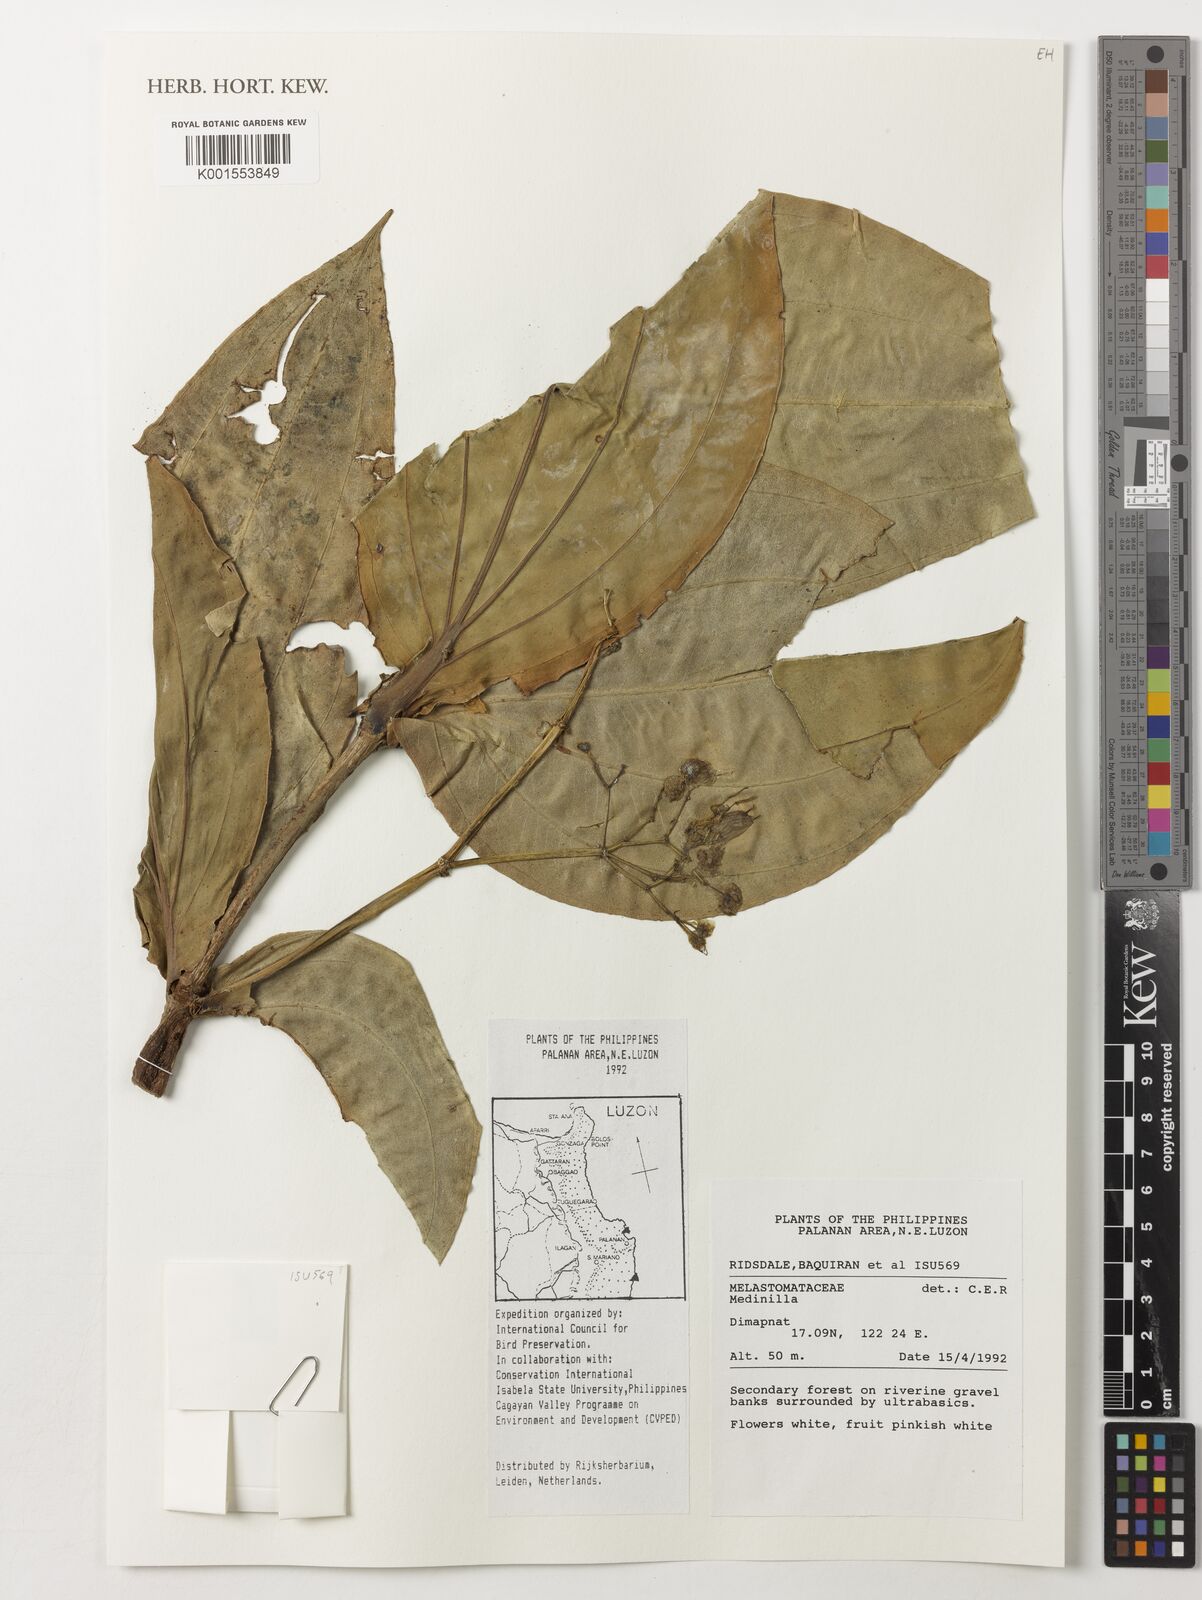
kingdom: Plantae
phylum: Tracheophyta
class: Magnoliopsida
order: Myrtales
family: Melastomataceae
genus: Medinilla
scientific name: Medinilla
